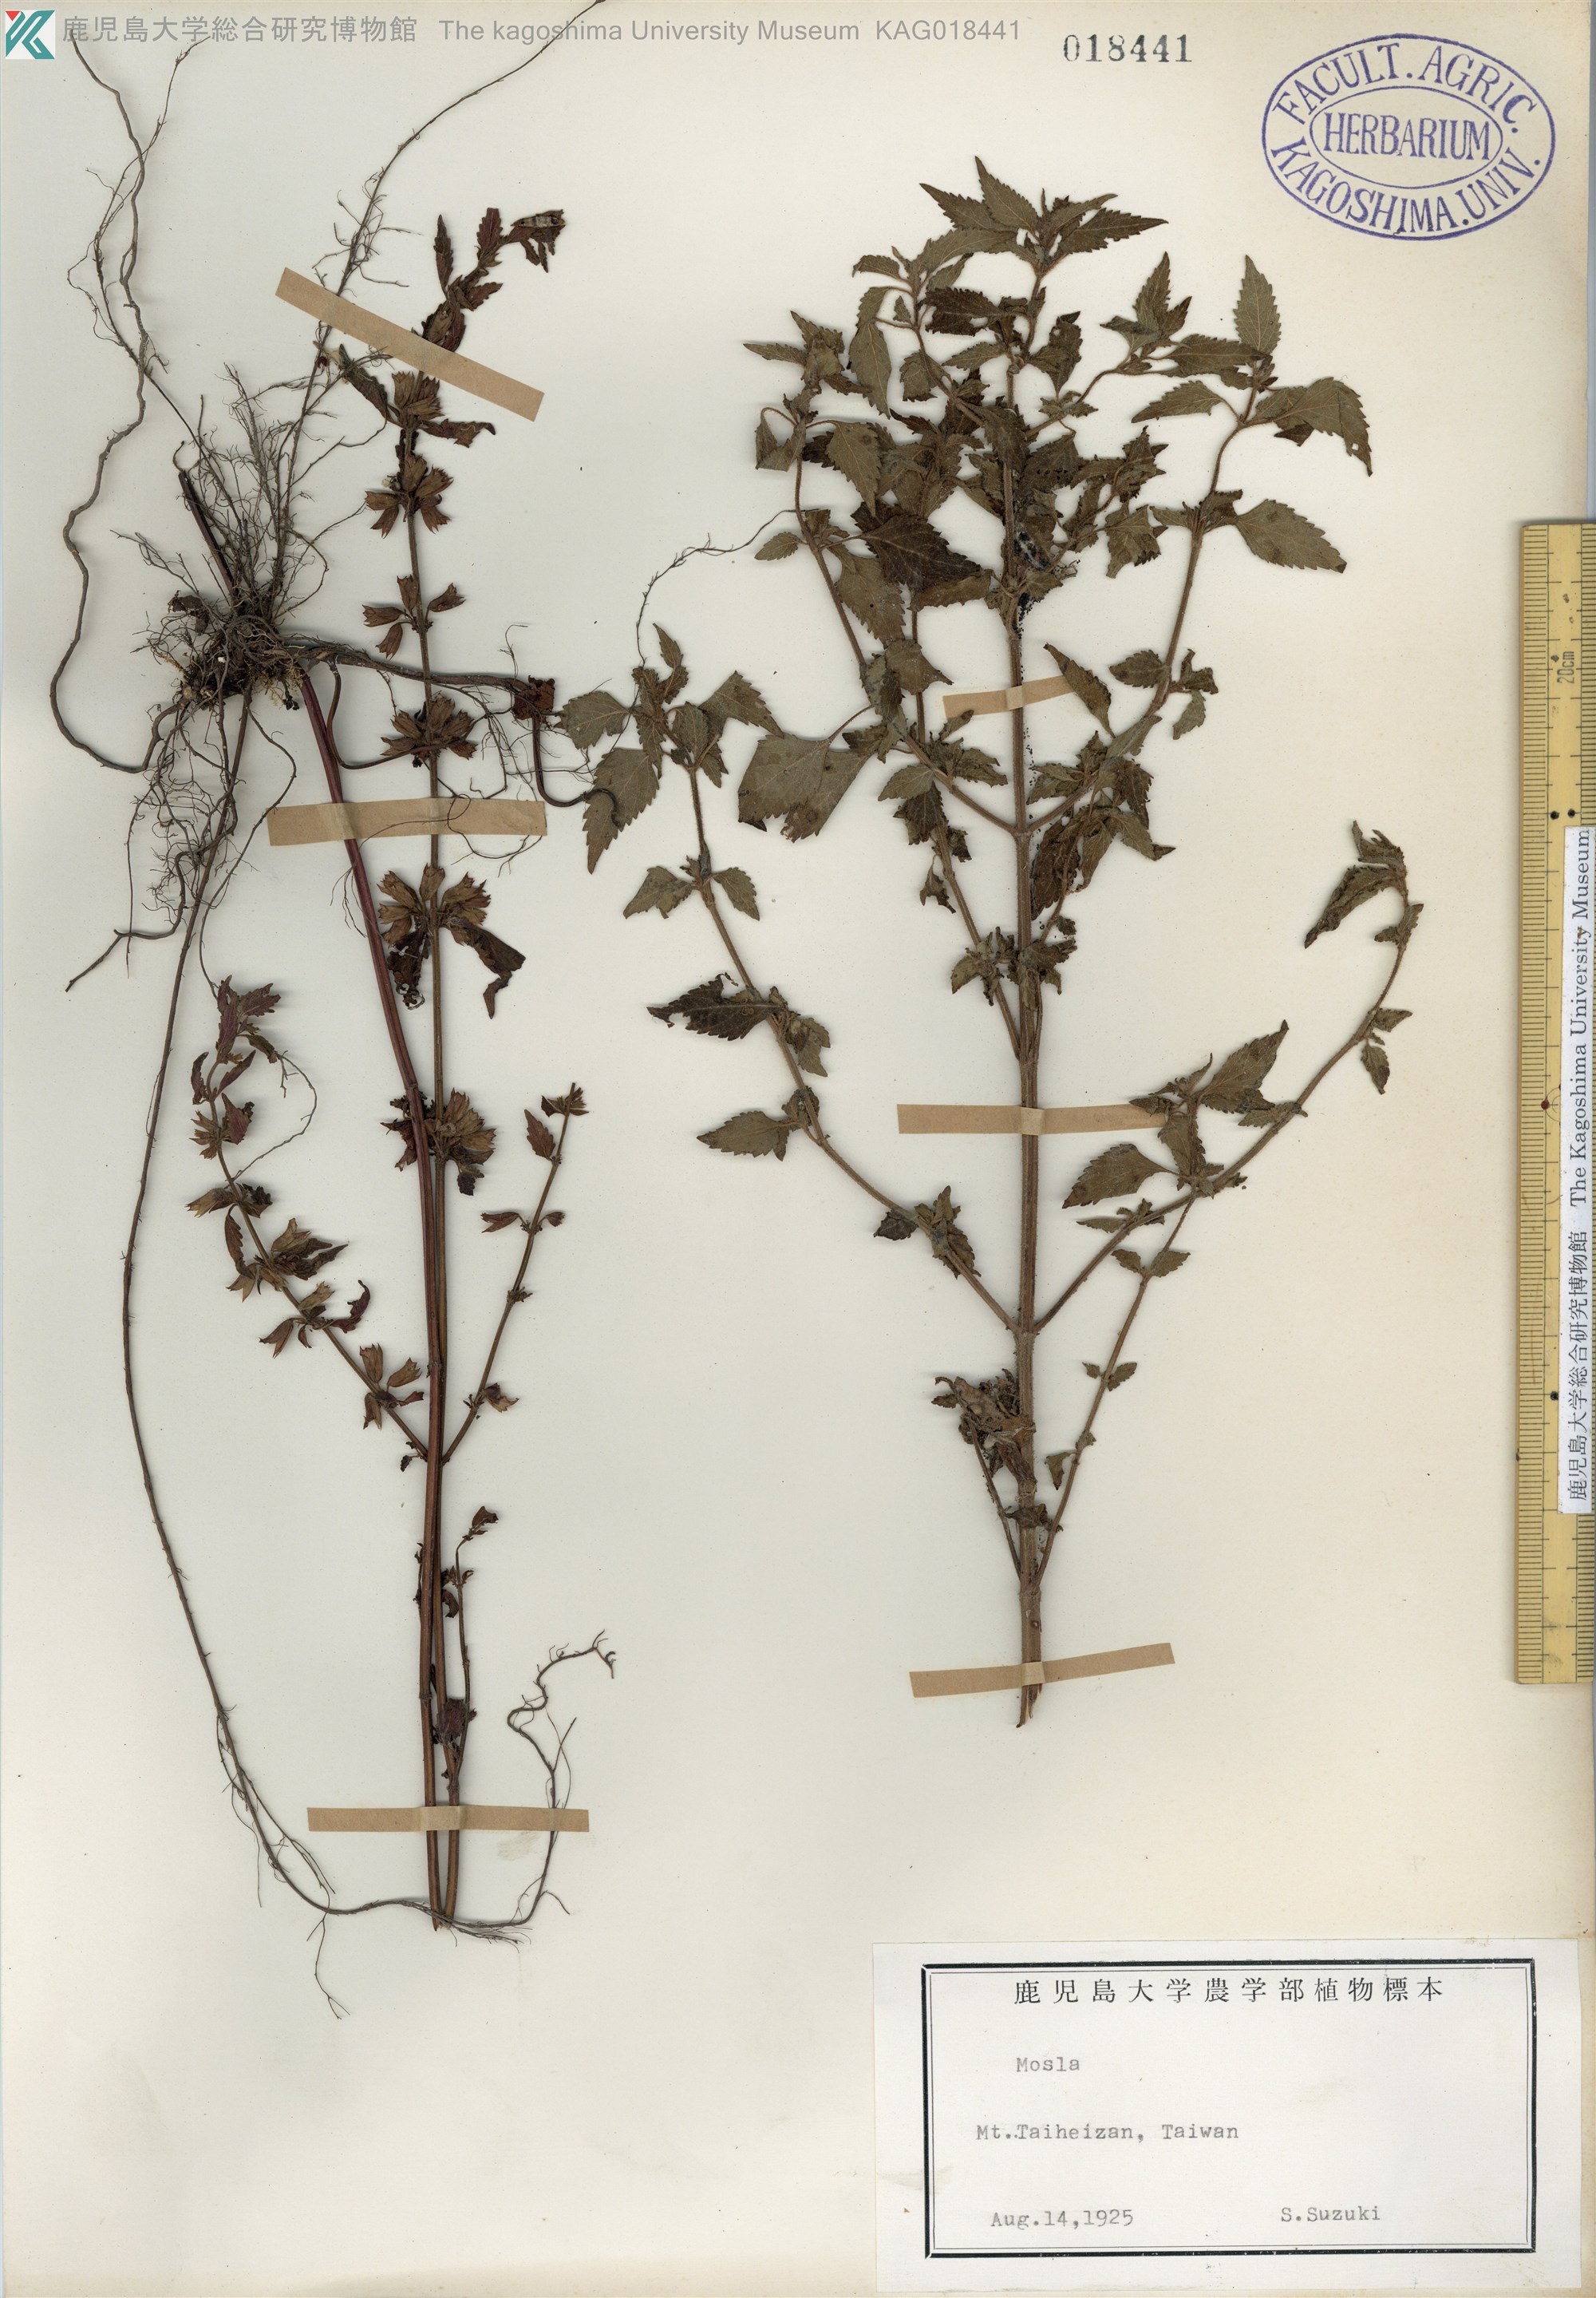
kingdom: Plantae
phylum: Tracheophyta
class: Magnoliopsida
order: Lamiales
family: Lamiaceae
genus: Mosla
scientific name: Mosla dianthera
